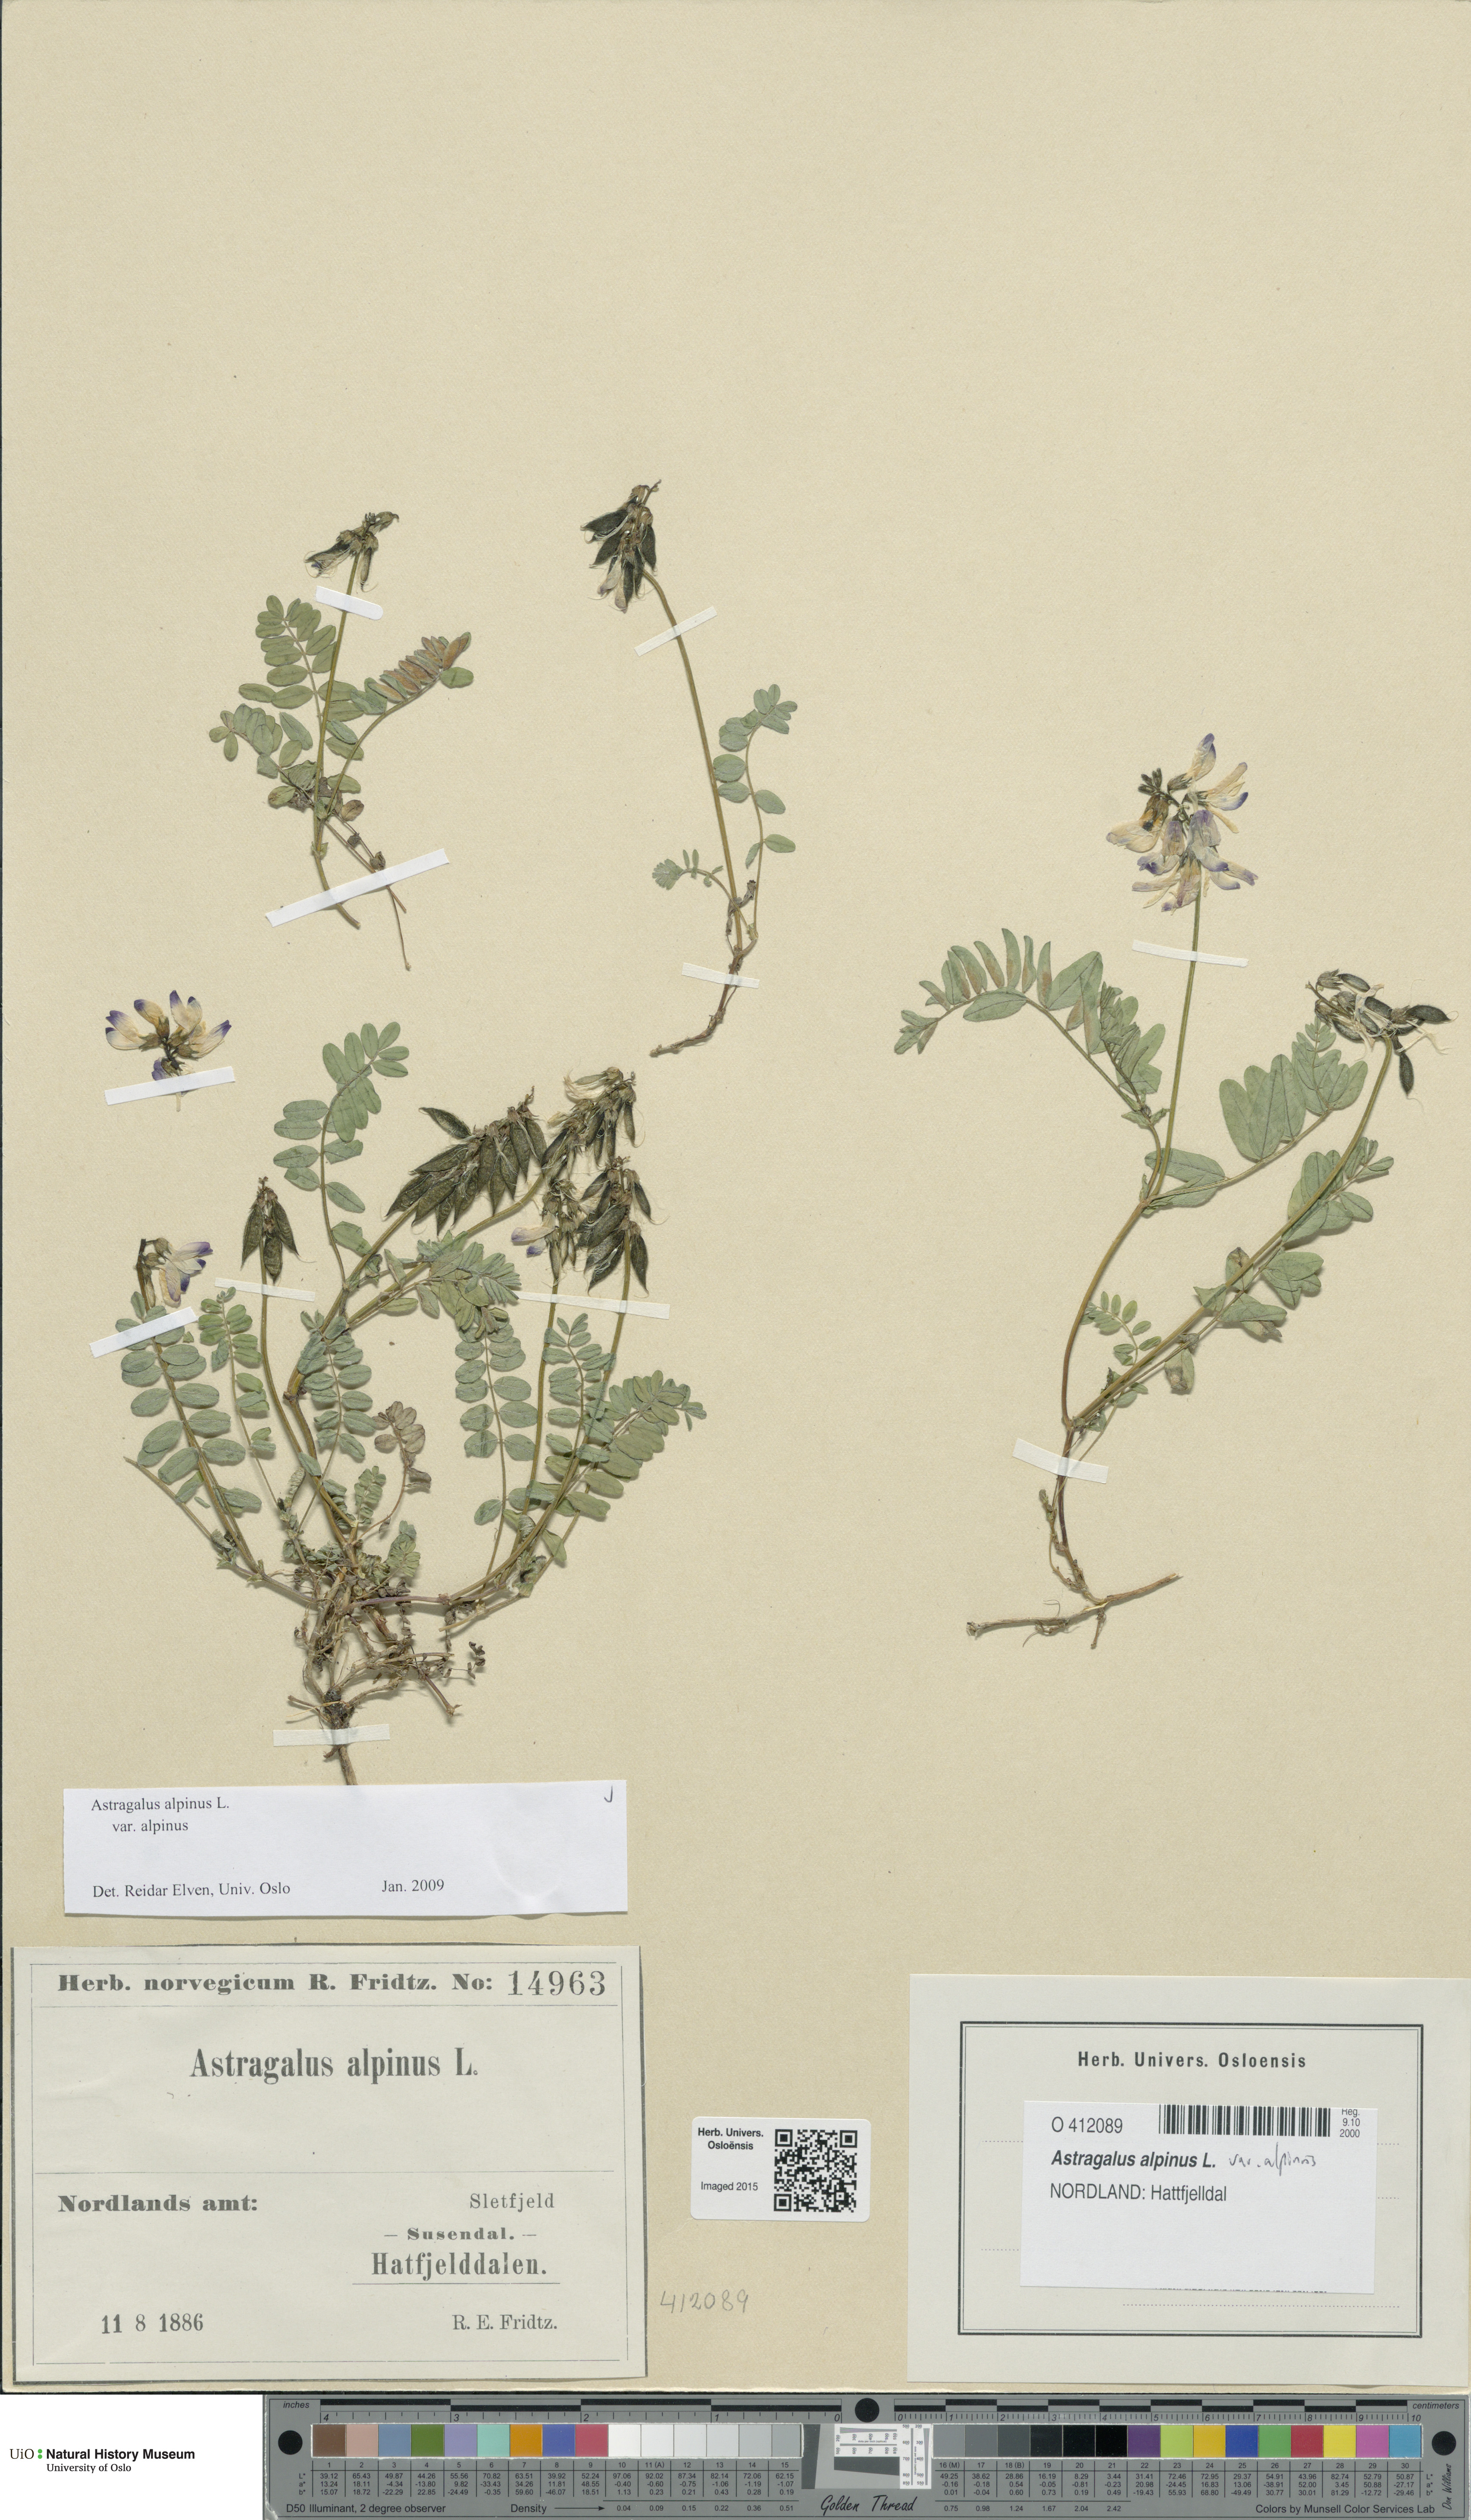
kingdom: Plantae
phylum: Tracheophyta
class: Magnoliopsida
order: Fabales
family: Fabaceae
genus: Astragalus
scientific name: Astragalus alpinus
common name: Alpine milk-vetch
